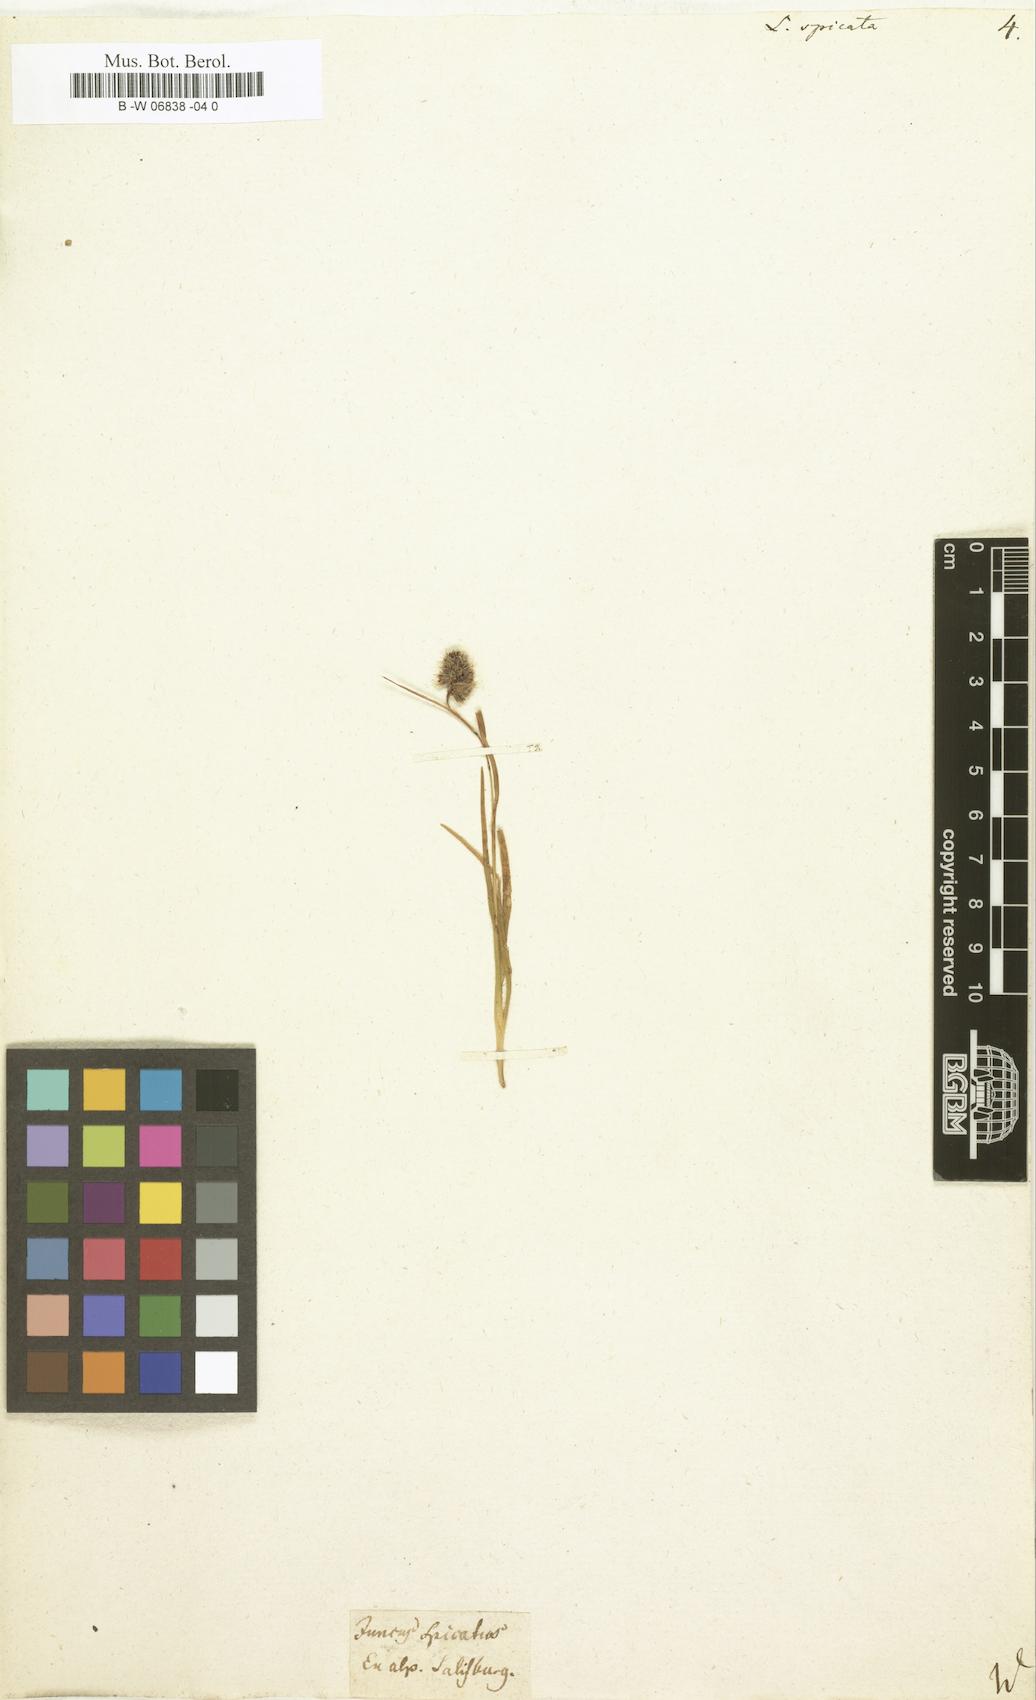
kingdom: Plantae
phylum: Tracheophyta
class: Liliopsida
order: Poales
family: Juncaceae
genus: Luzula
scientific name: Luzula spicata
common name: Spiked wood-rush
